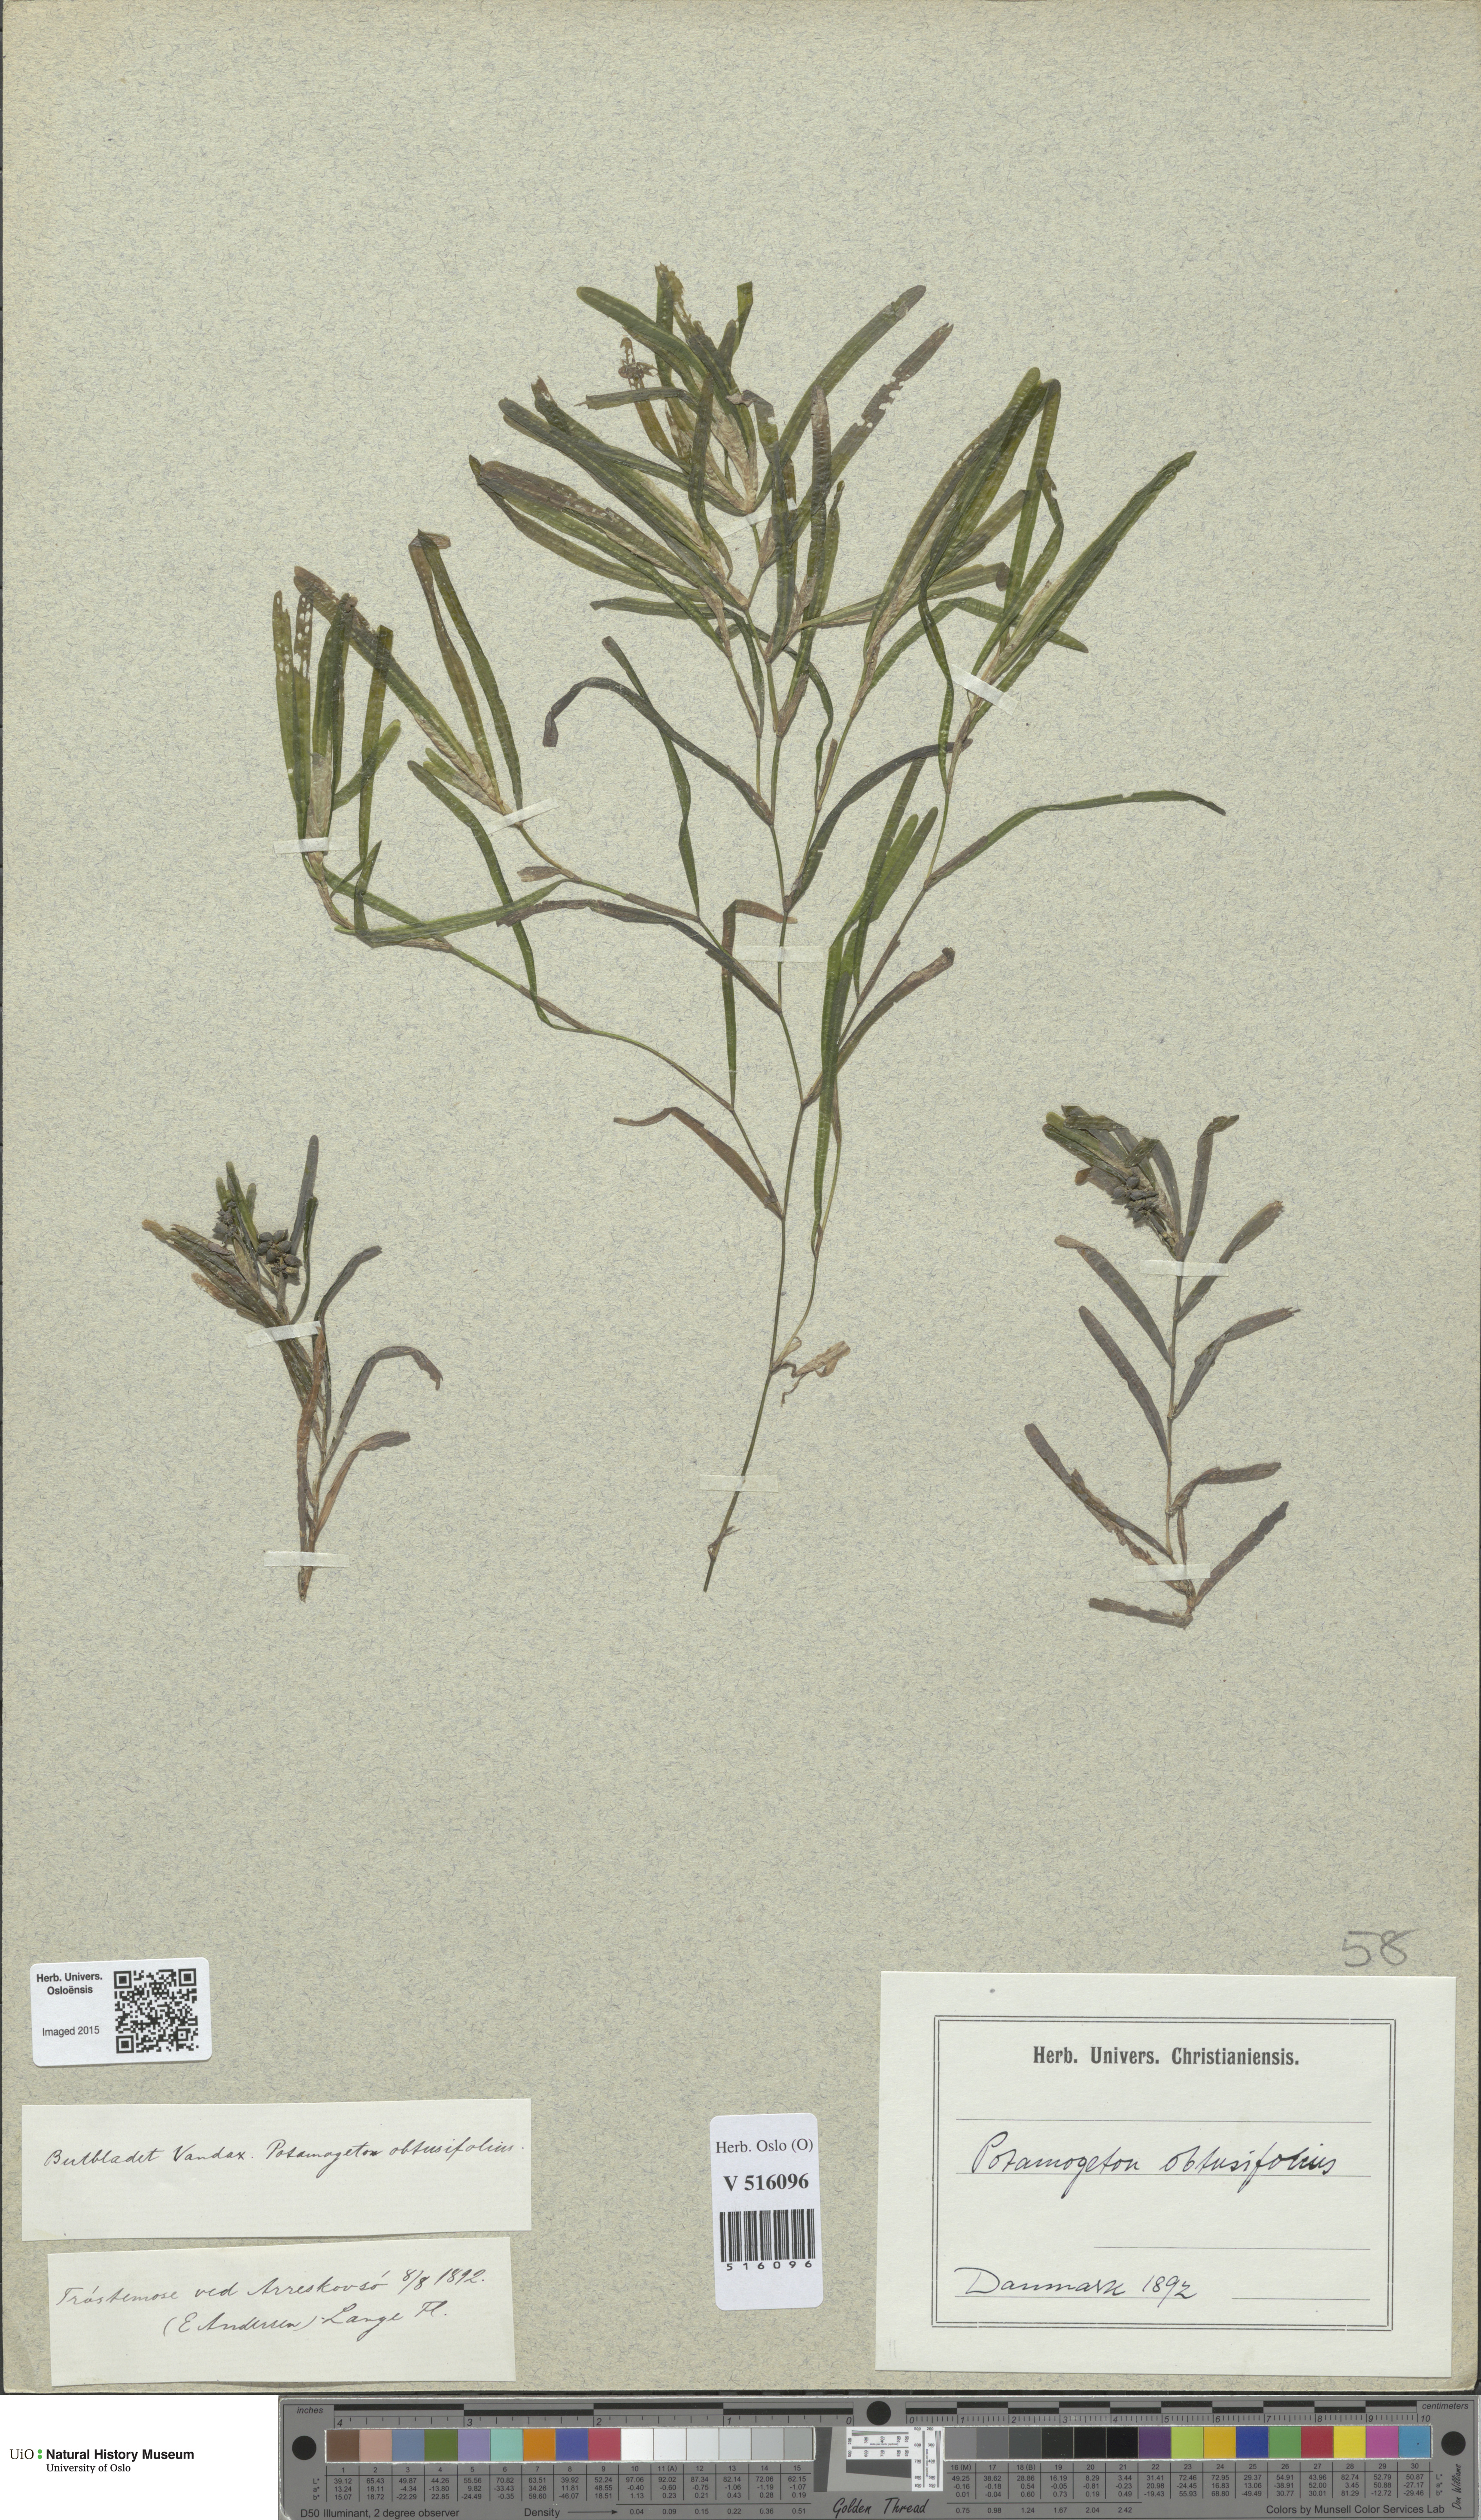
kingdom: Plantae
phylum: Tracheophyta
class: Liliopsida
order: Alismatales
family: Potamogetonaceae
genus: Potamogeton
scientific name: Potamogeton obtusifolius
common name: Blunt-leaved pondweed
